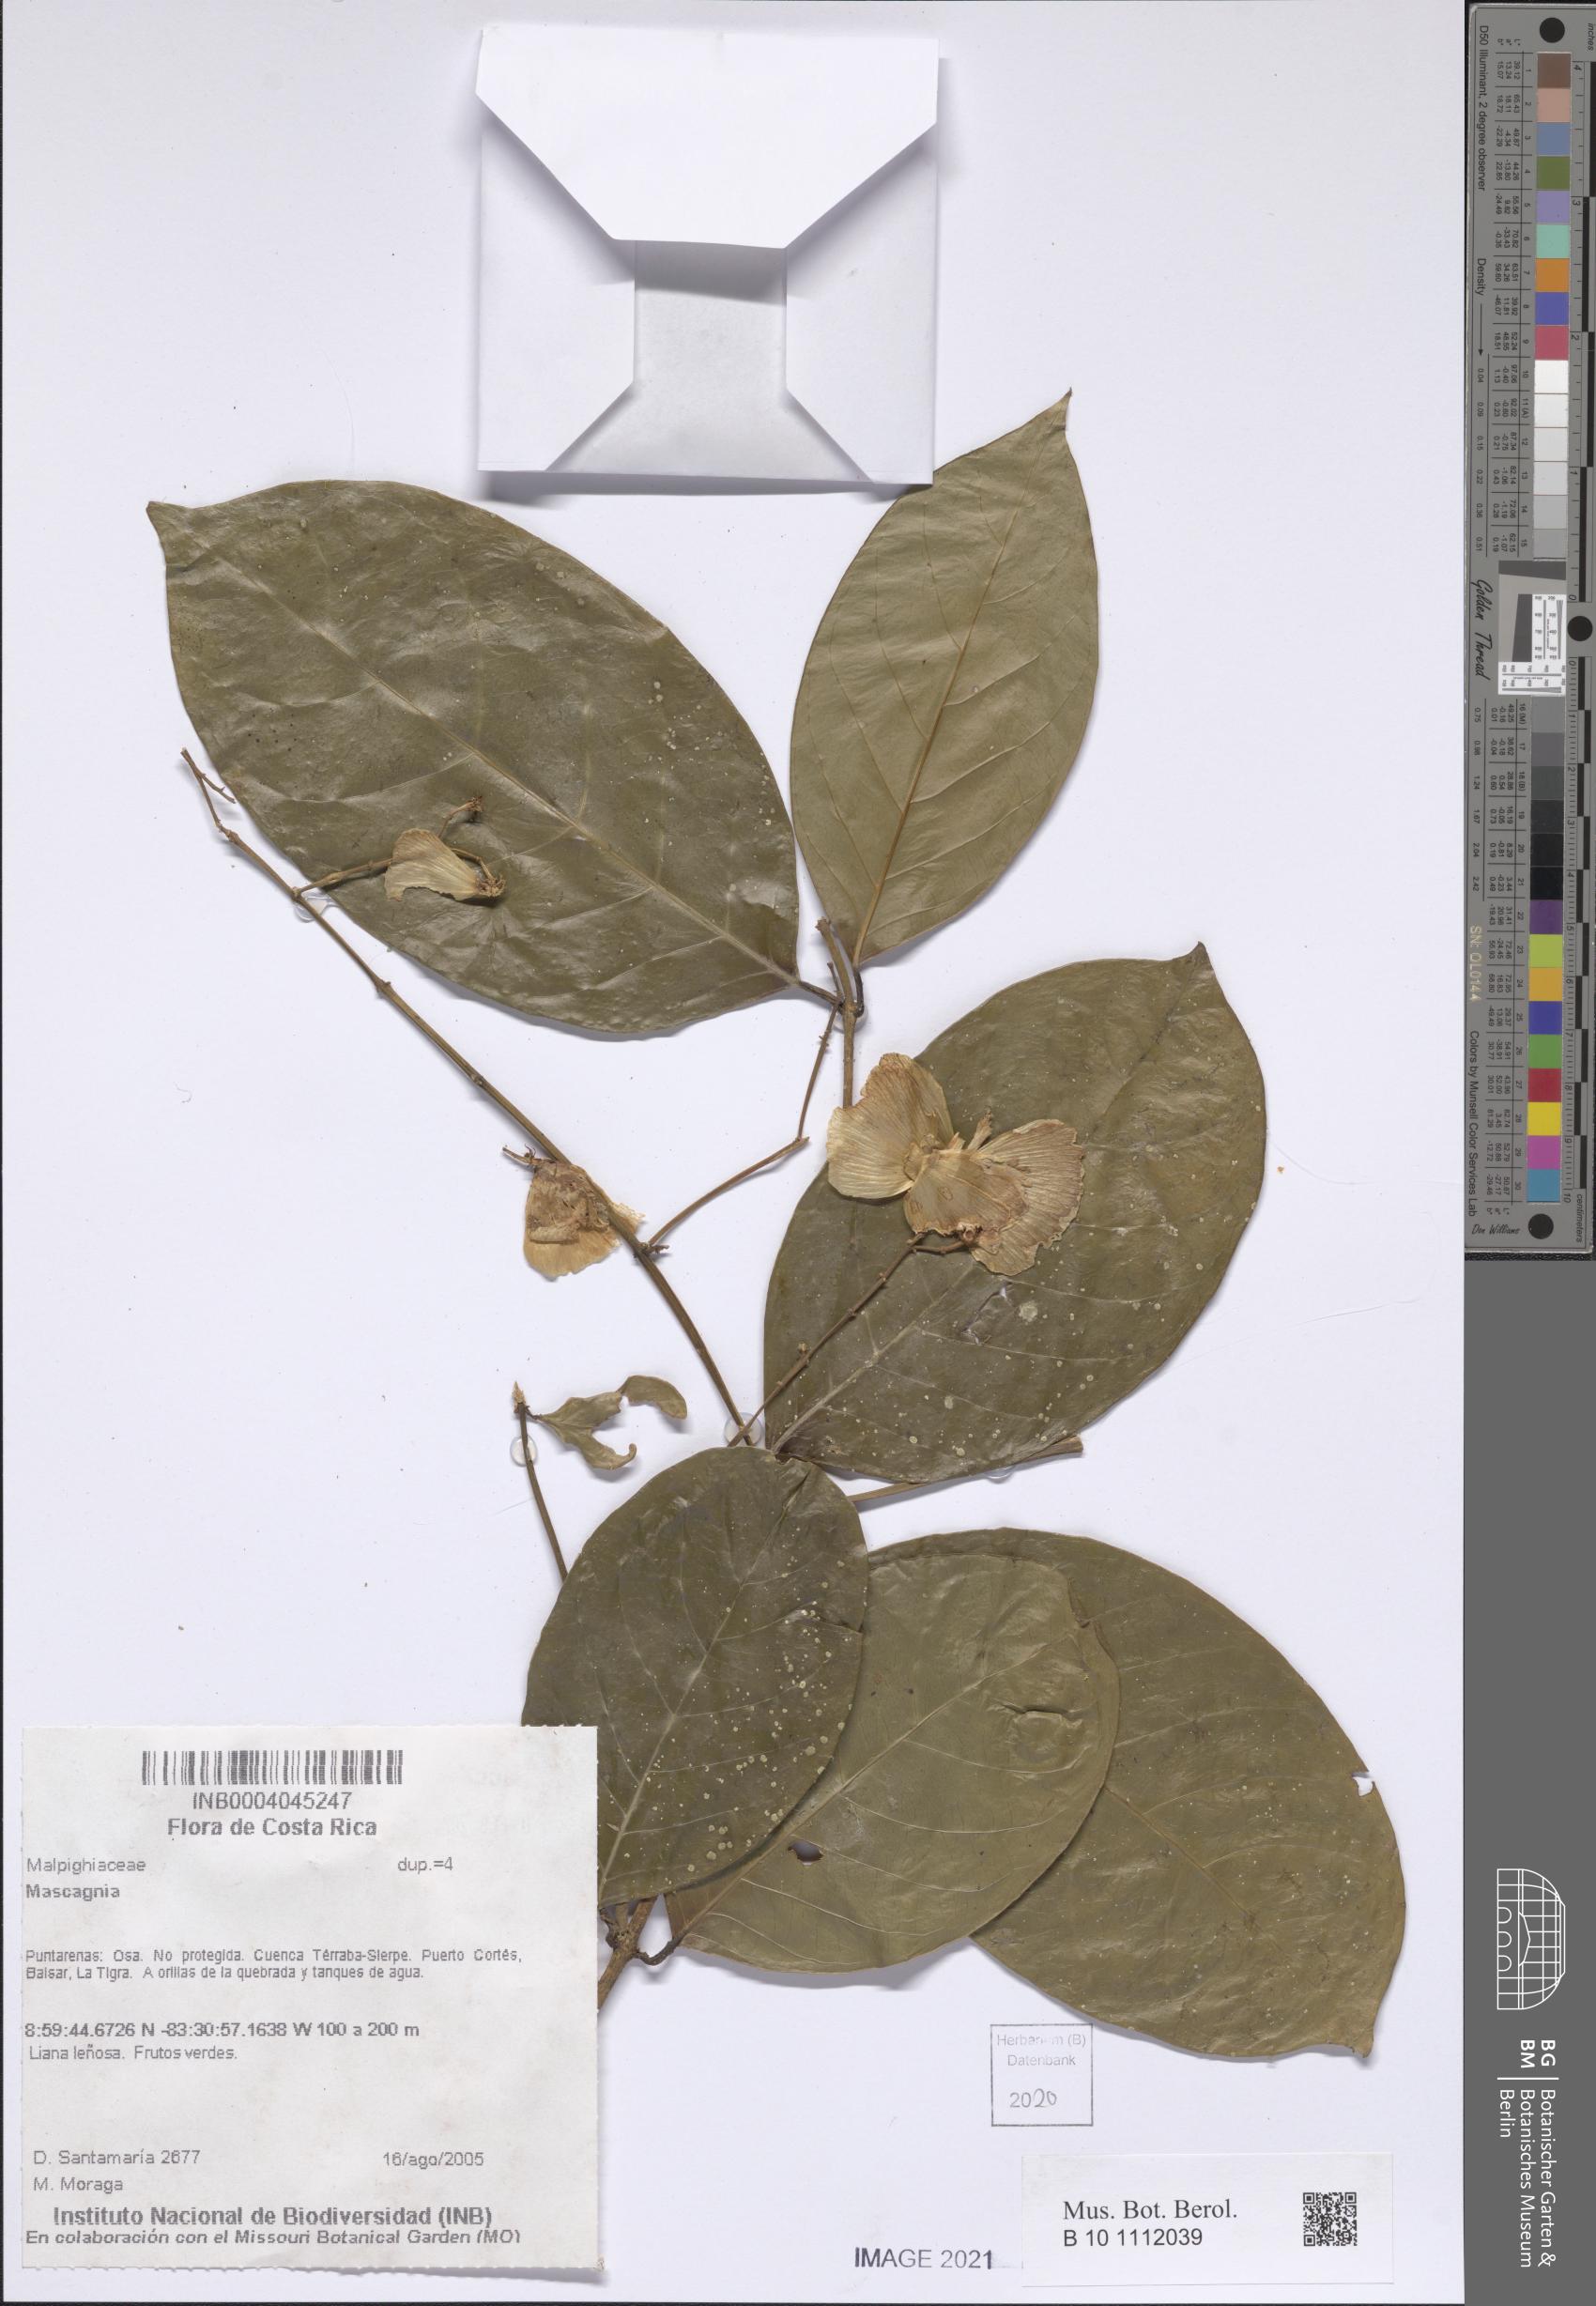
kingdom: Plantae
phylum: Tracheophyta
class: Magnoliopsida
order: Malpighiales
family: Malpighiaceae
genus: Mascagnia
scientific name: Mascagnia
